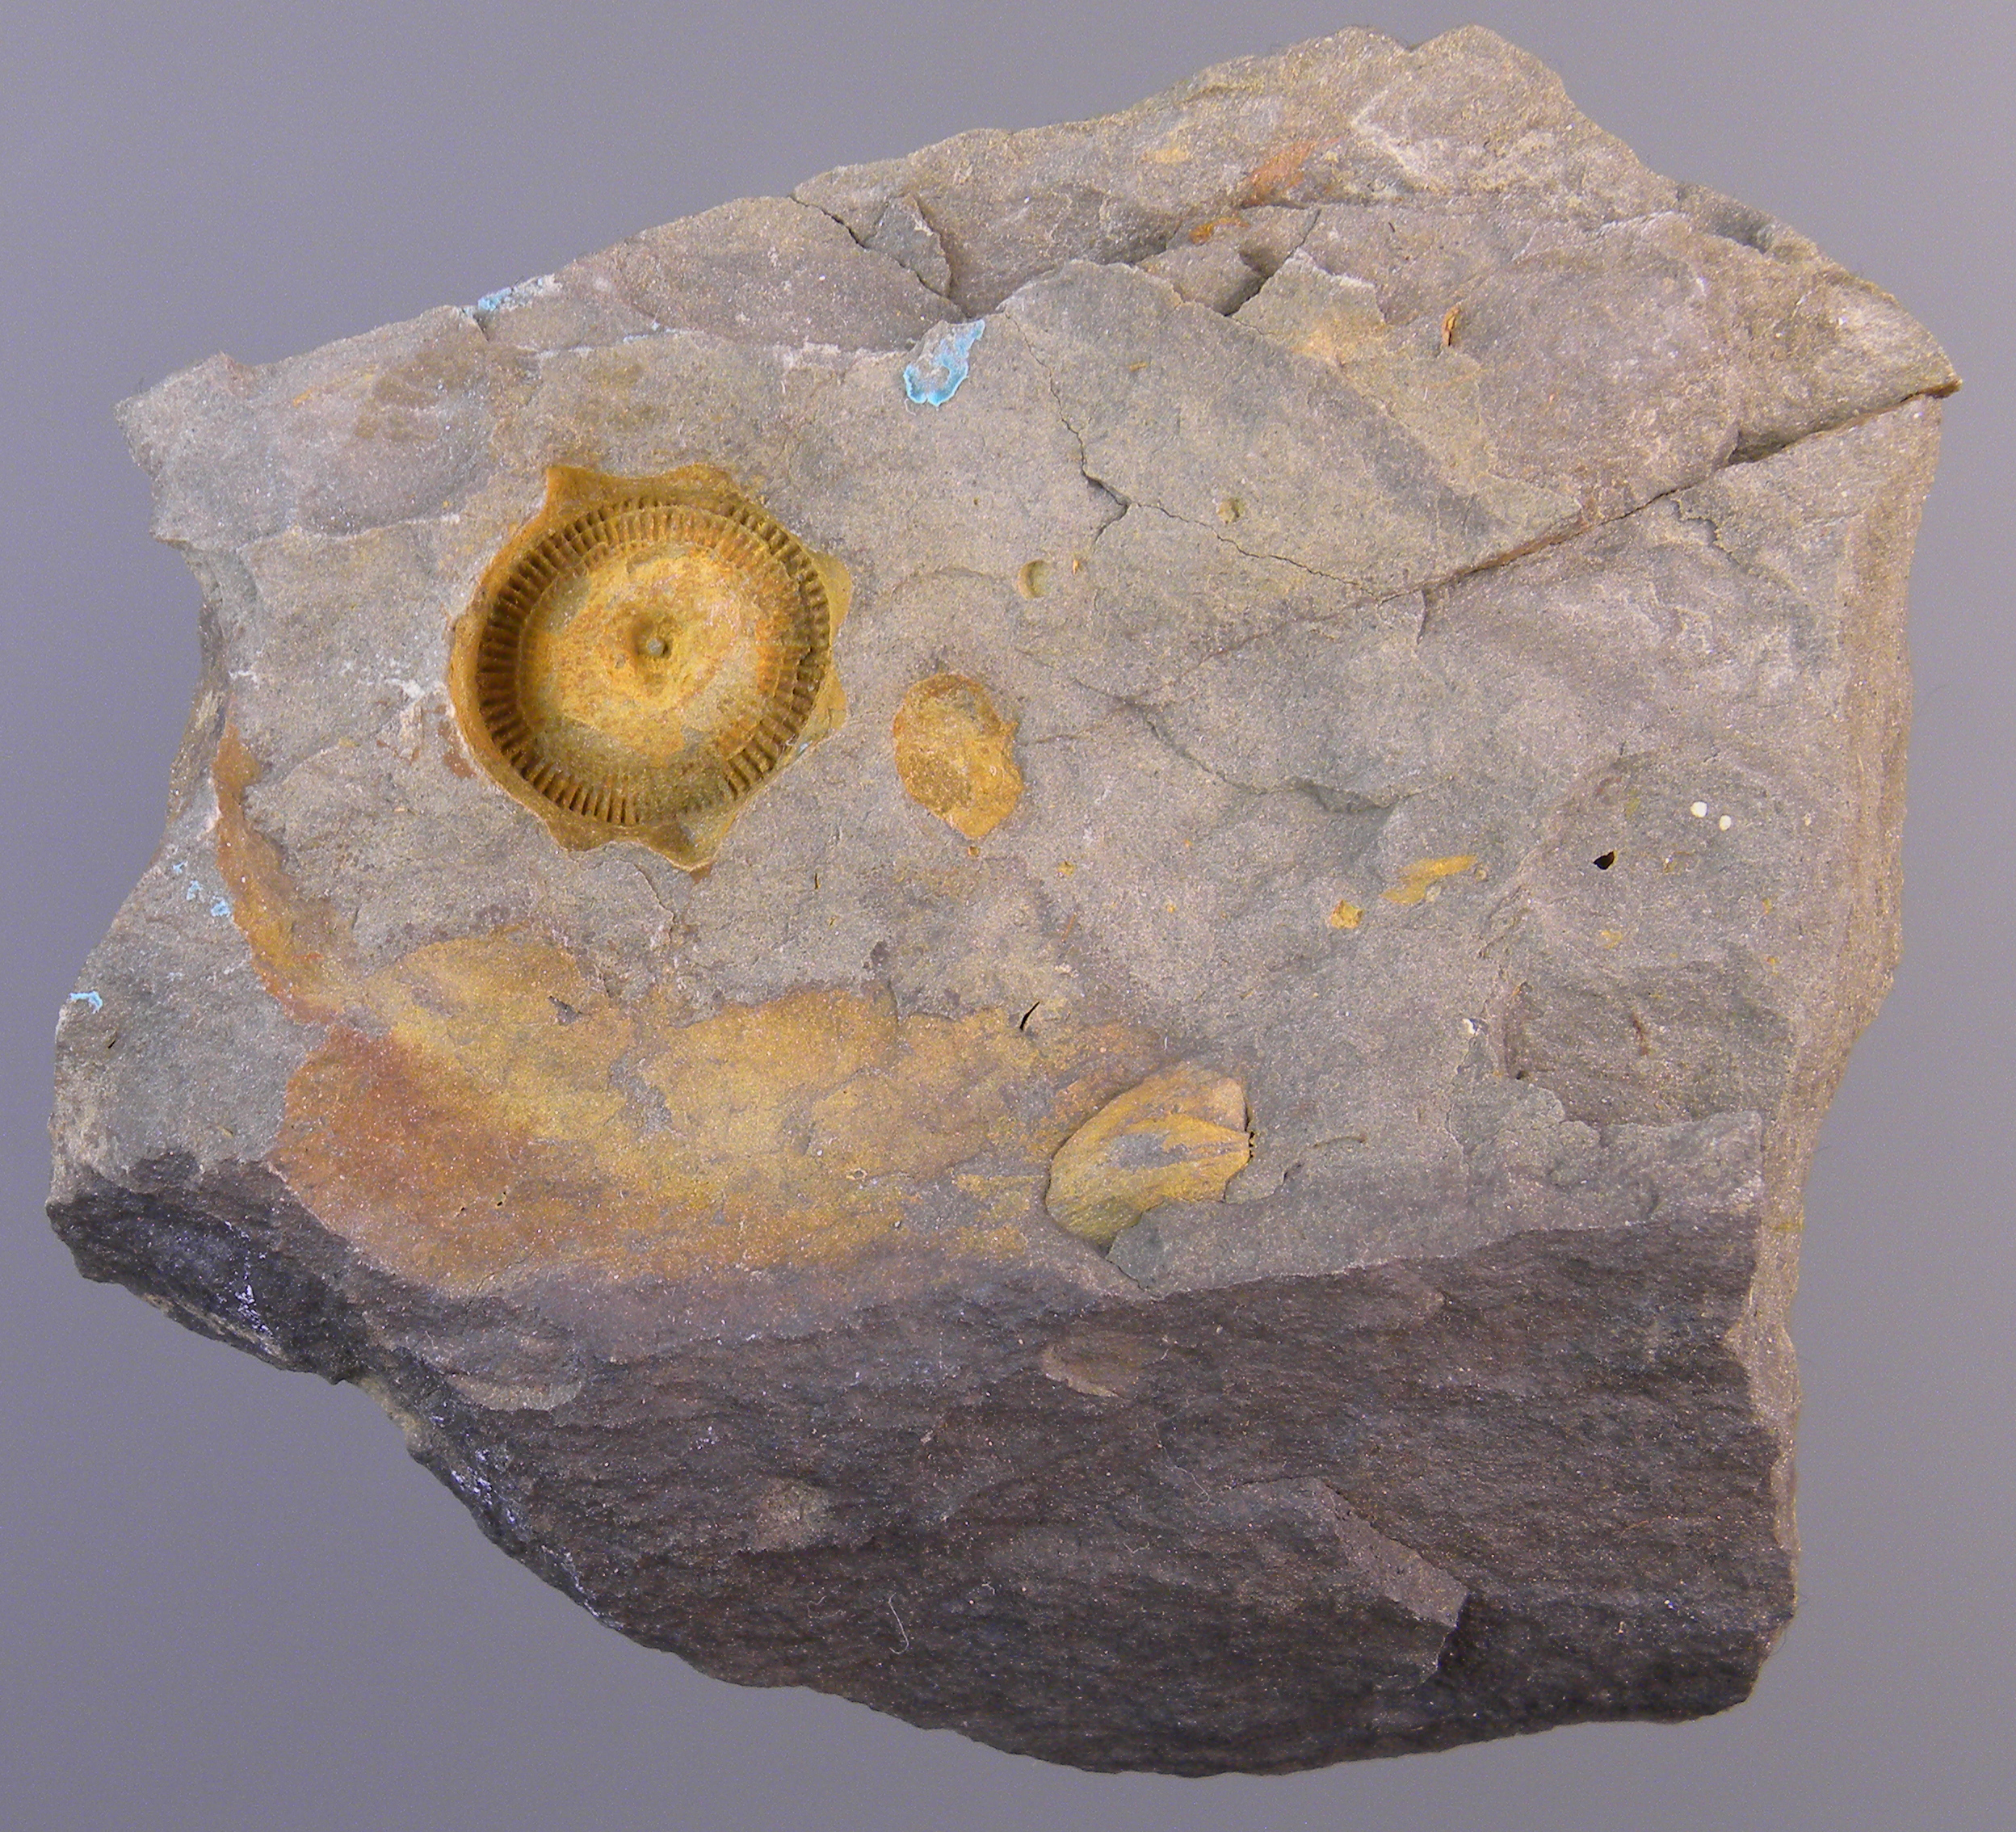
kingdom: Animalia
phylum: Echinodermata
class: Crinoidea
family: Melocrinitidae
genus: Ctenocrinus
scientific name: Ctenocrinus
